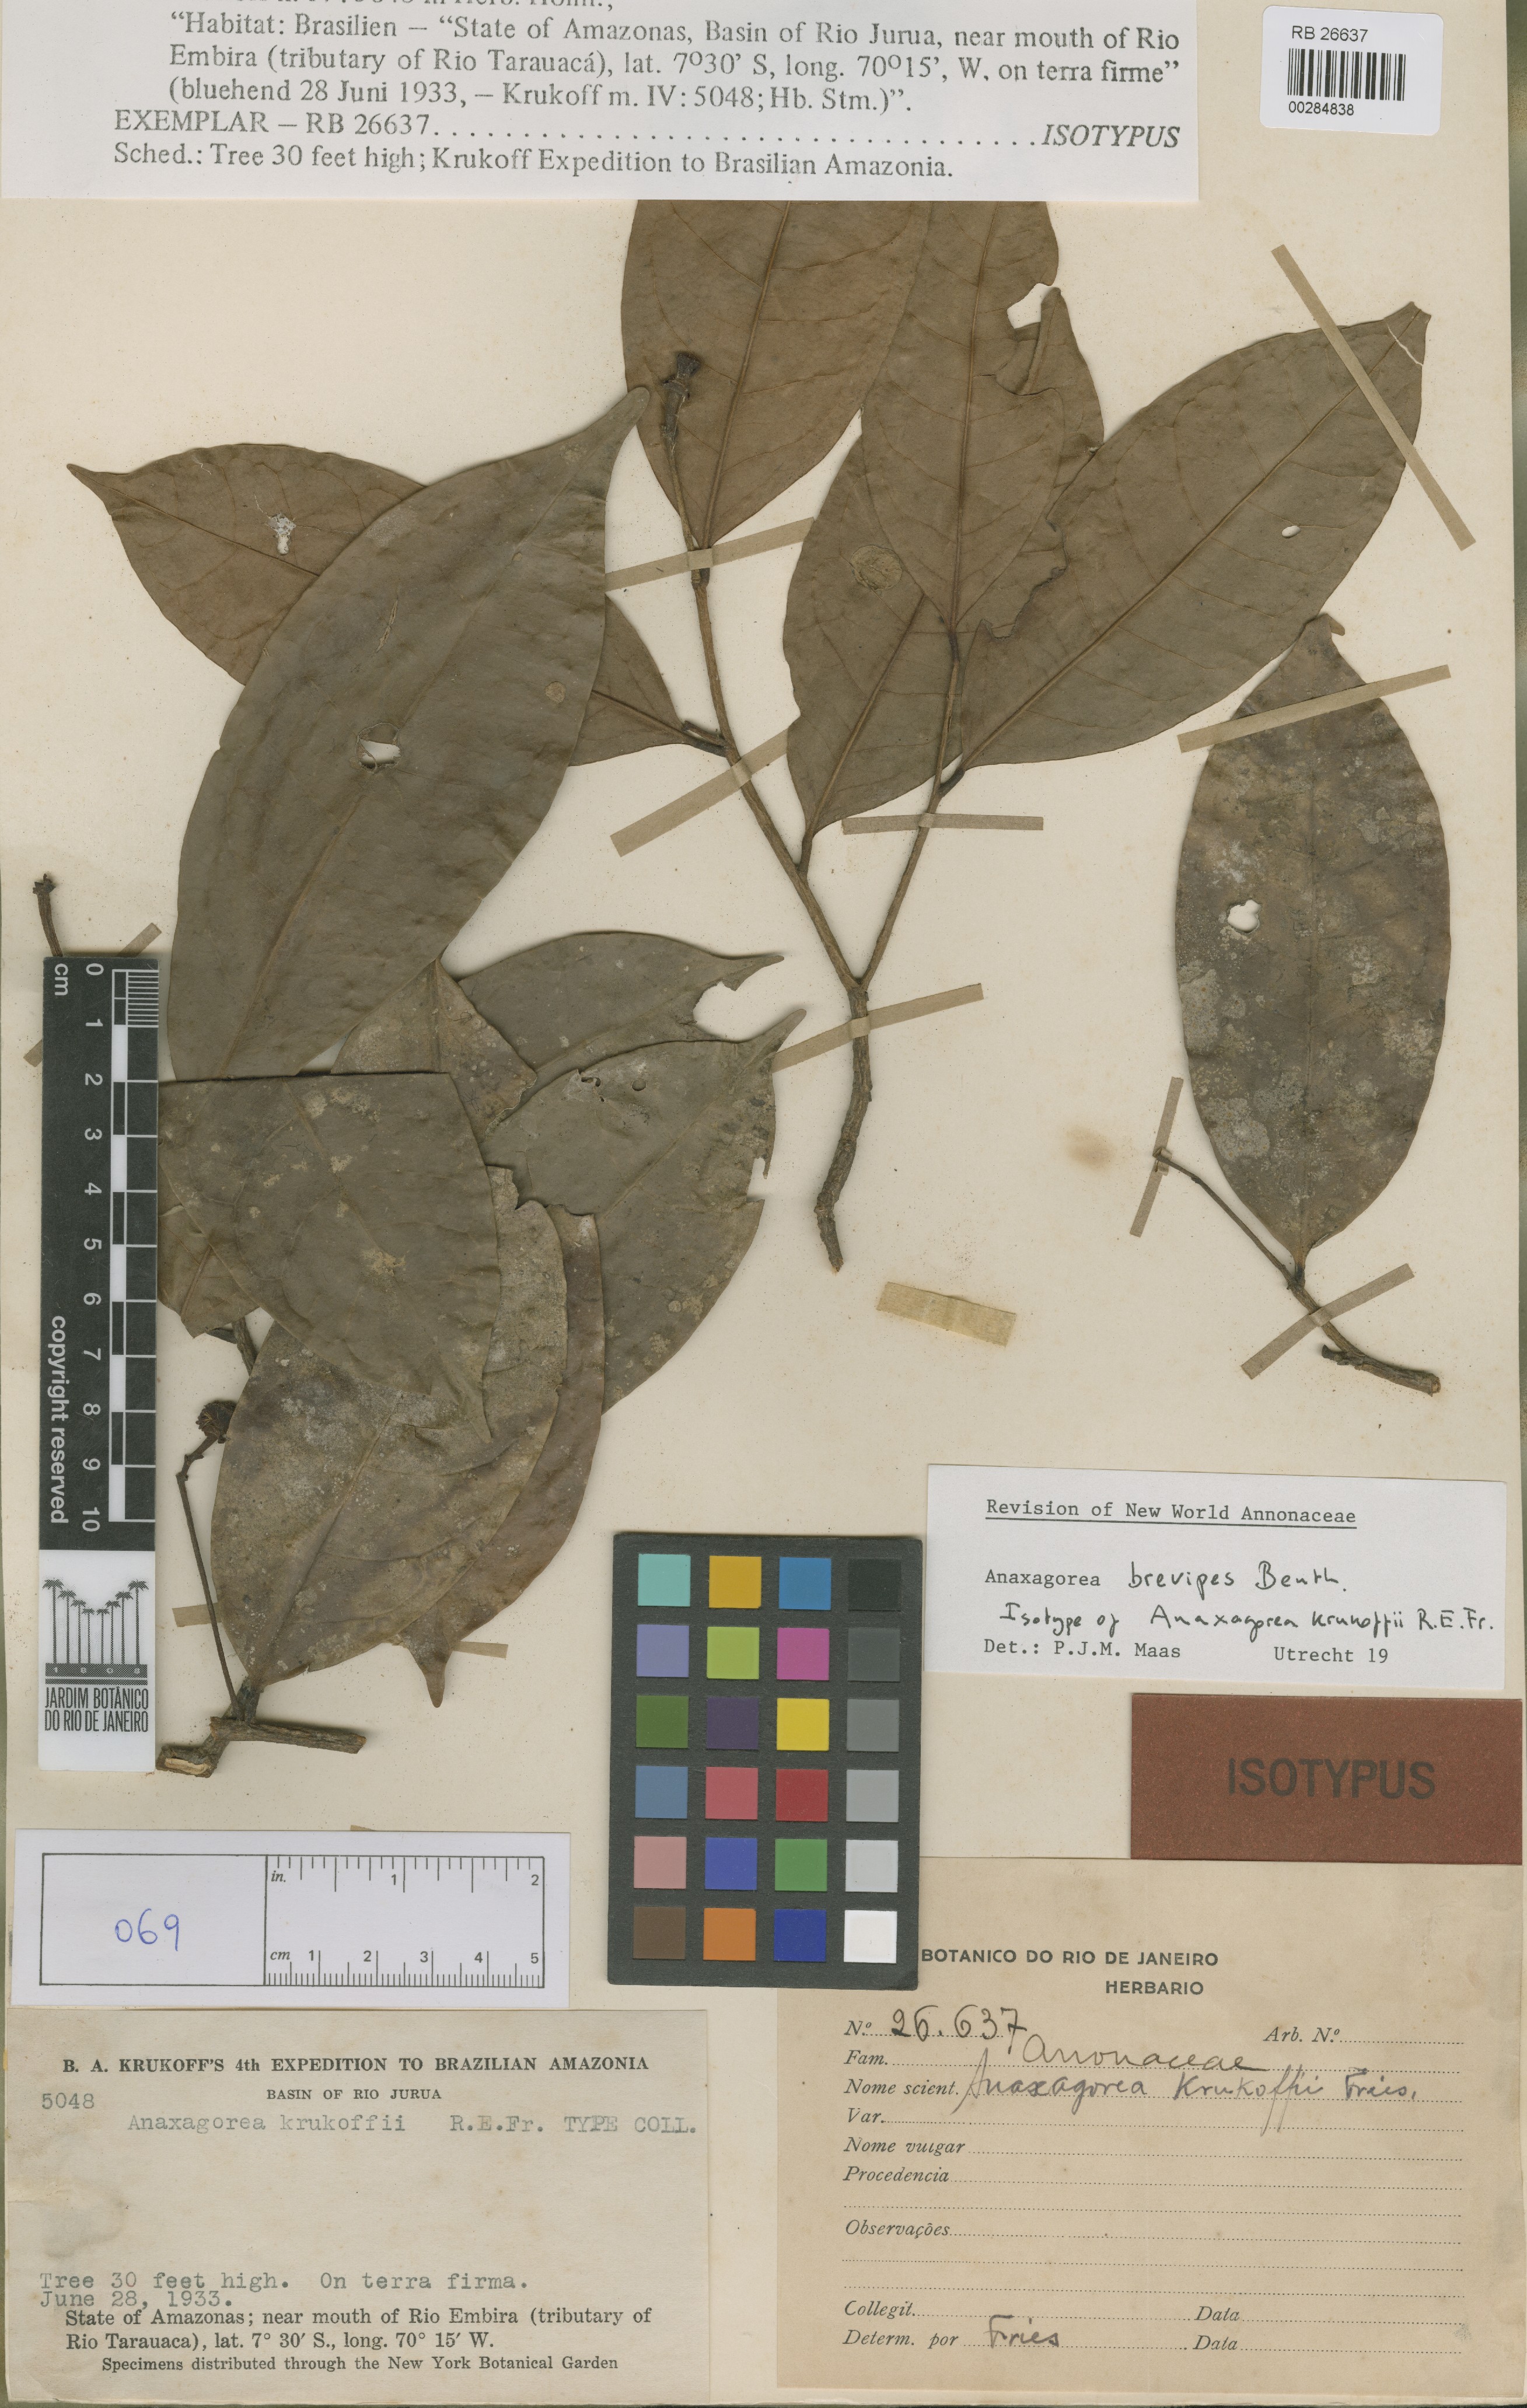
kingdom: Plantae
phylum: Tracheophyta
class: Magnoliopsida
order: Magnoliales
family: Annonaceae
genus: Anaxagorea
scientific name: Anaxagorea brevipes
